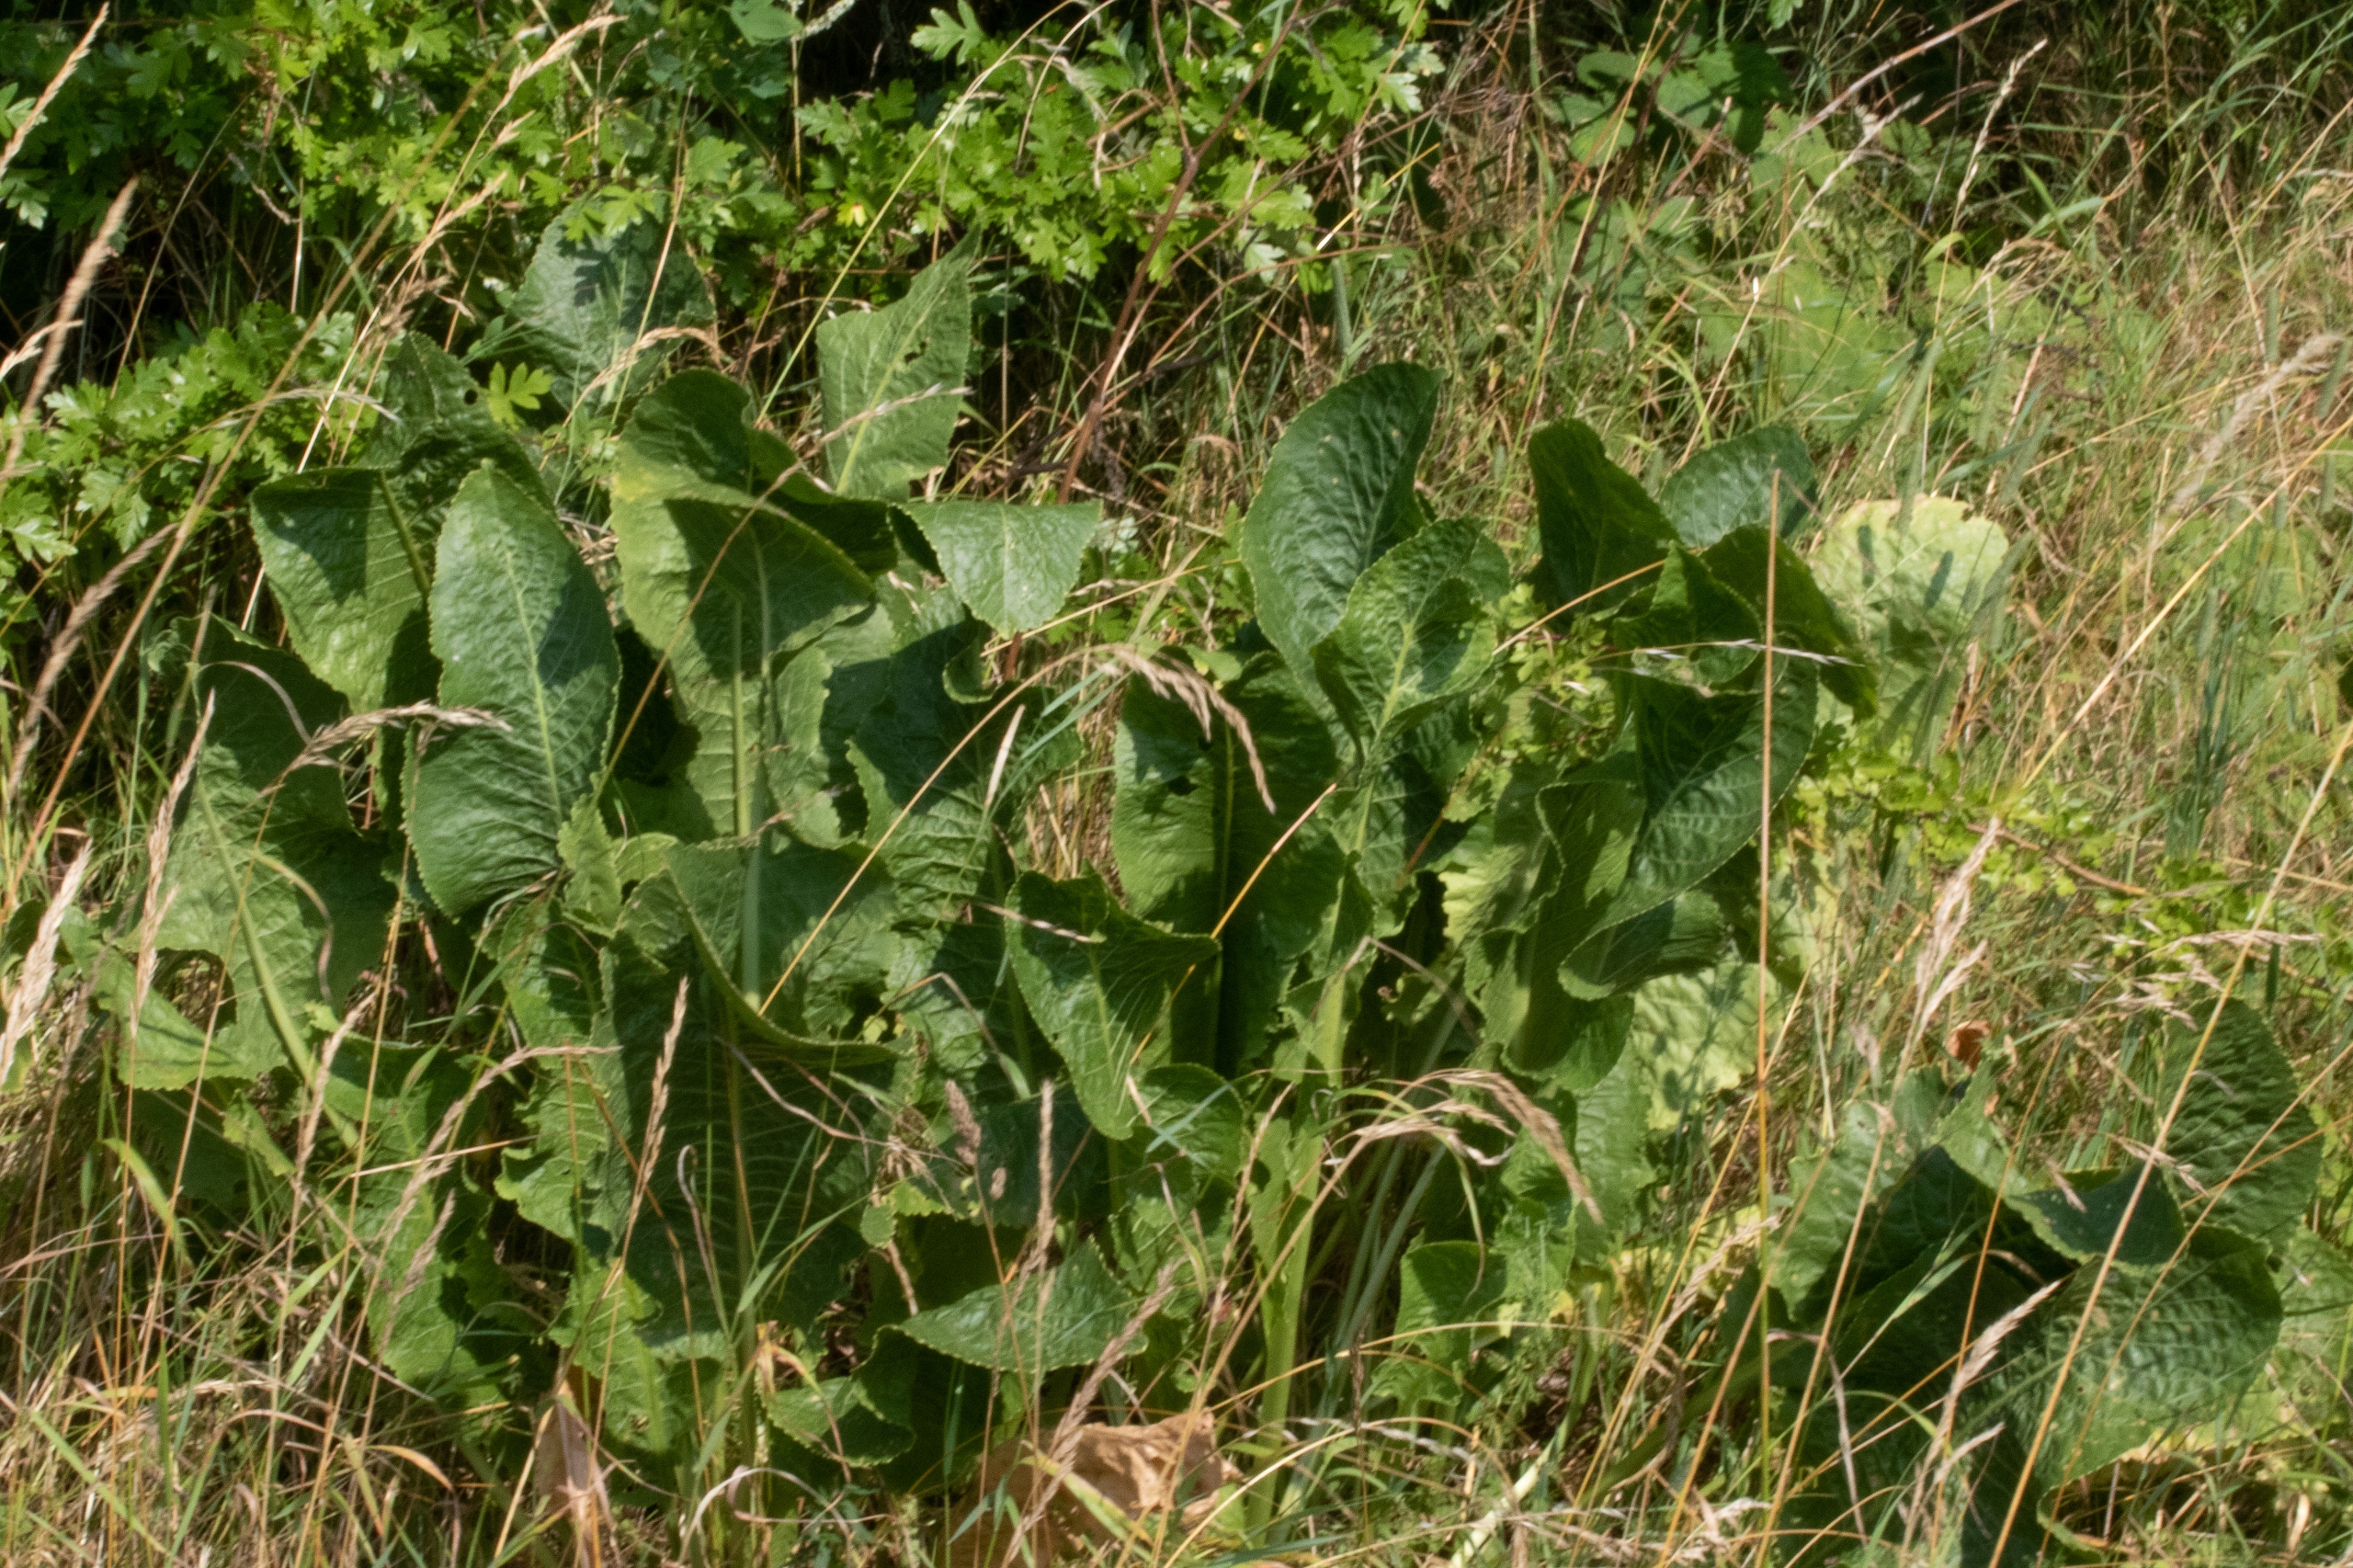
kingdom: Plantae
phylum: Tracheophyta
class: Magnoliopsida
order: Brassicales
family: Brassicaceae
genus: Armoracia
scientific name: Armoracia rusticana
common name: Peberrod
